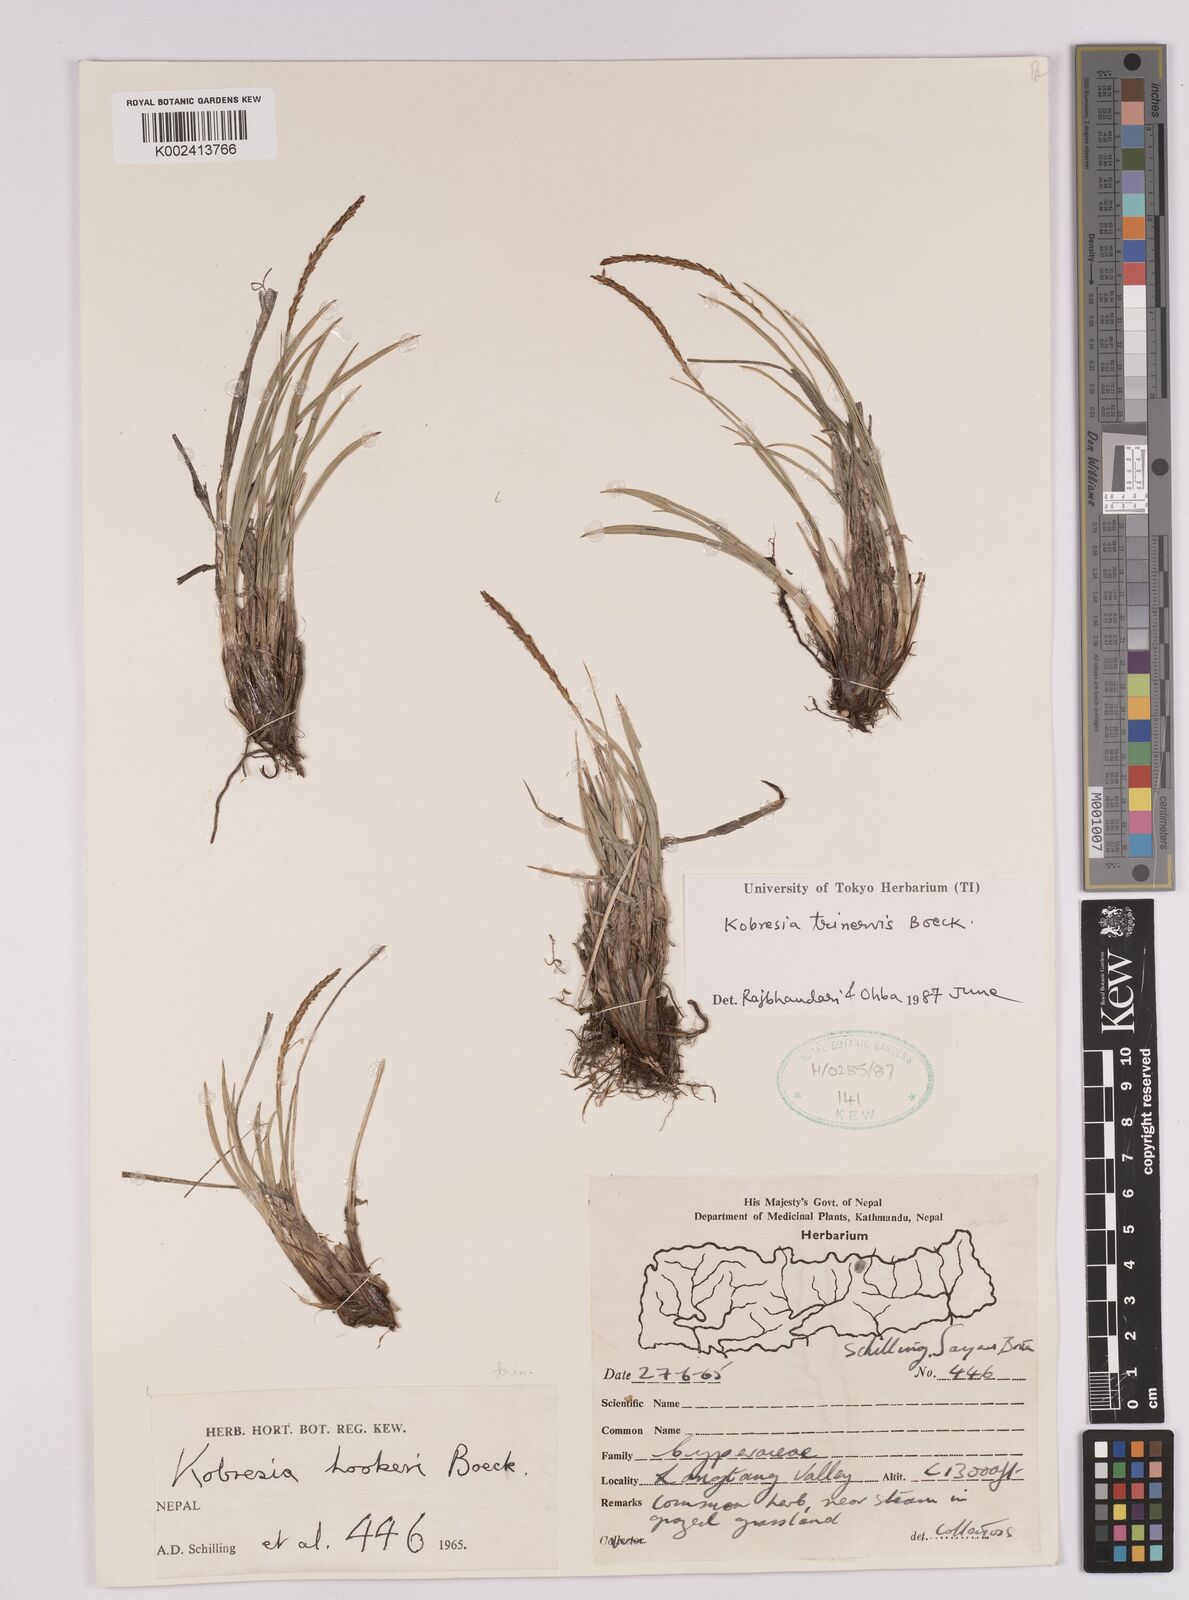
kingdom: Plantae
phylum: Tracheophyta
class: Liliopsida
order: Poales
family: Cyperaceae
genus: Carex
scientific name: Carex esenbeckii
